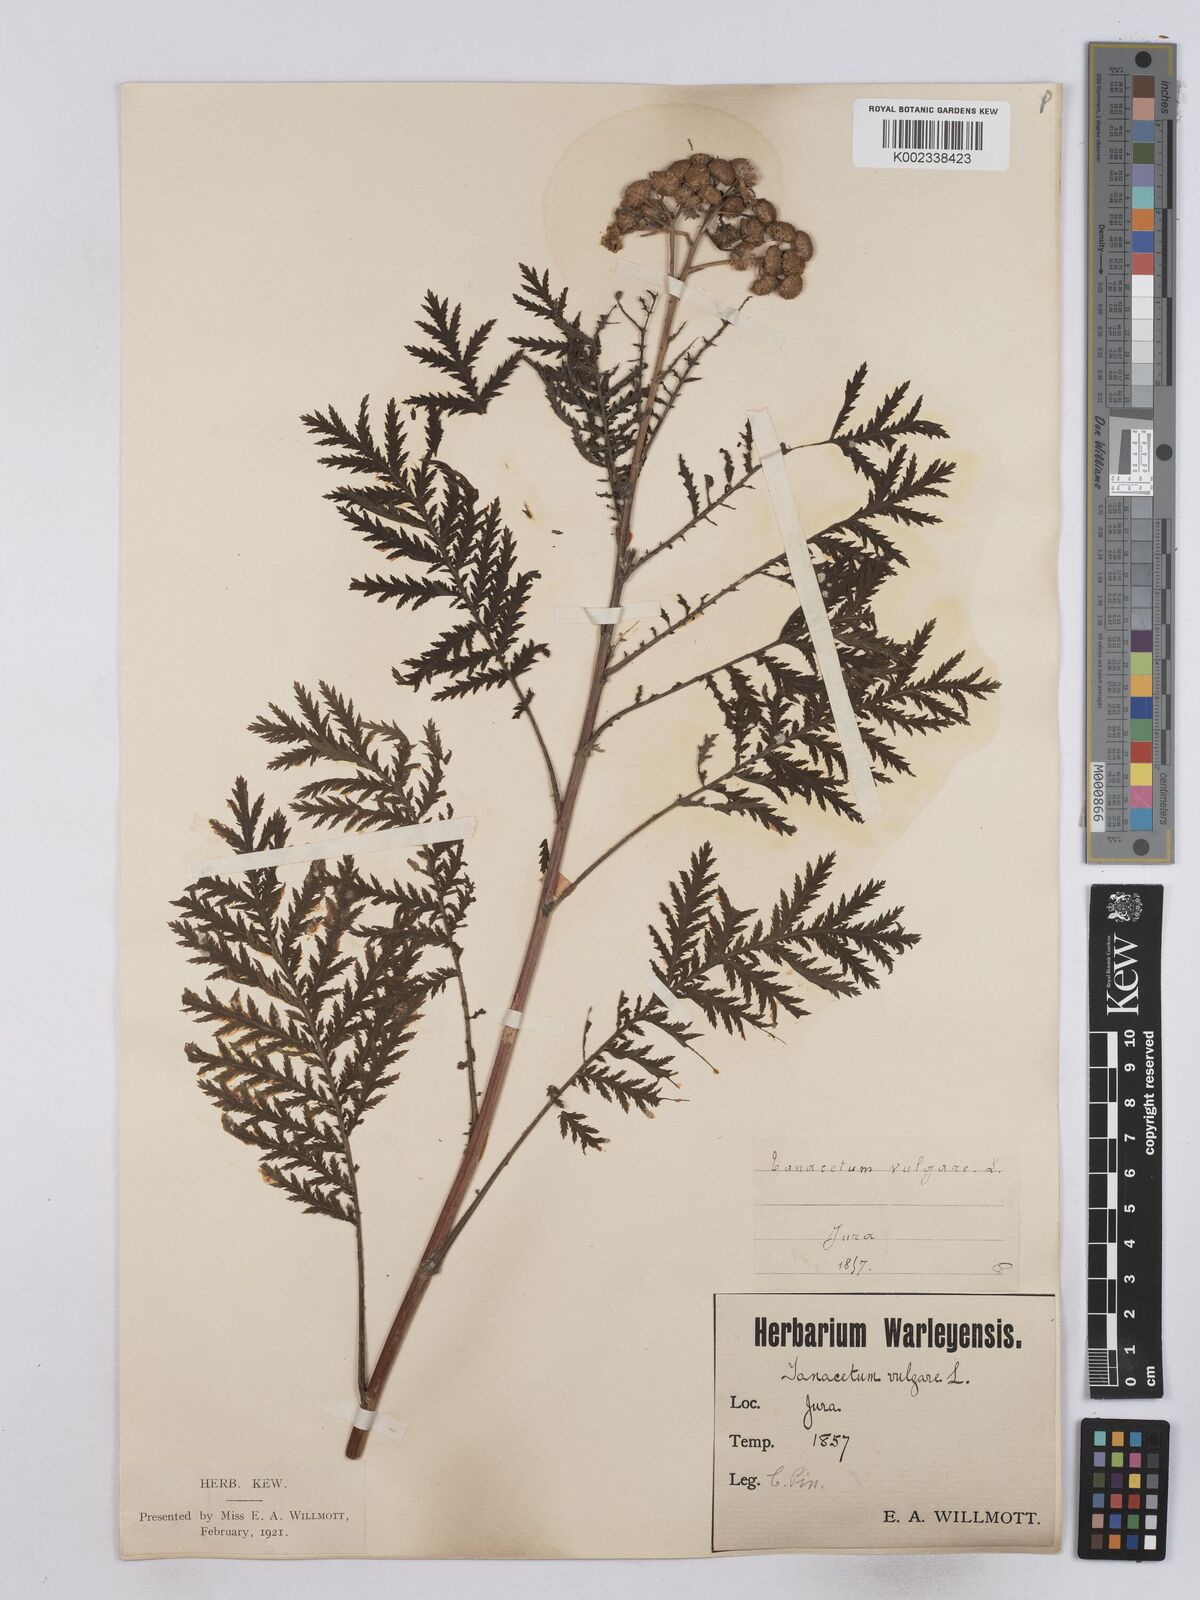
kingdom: Plantae
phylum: Tracheophyta
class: Magnoliopsida
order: Asterales
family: Asteraceae
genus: Tanacetum
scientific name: Tanacetum vulgare
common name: Common tansy
